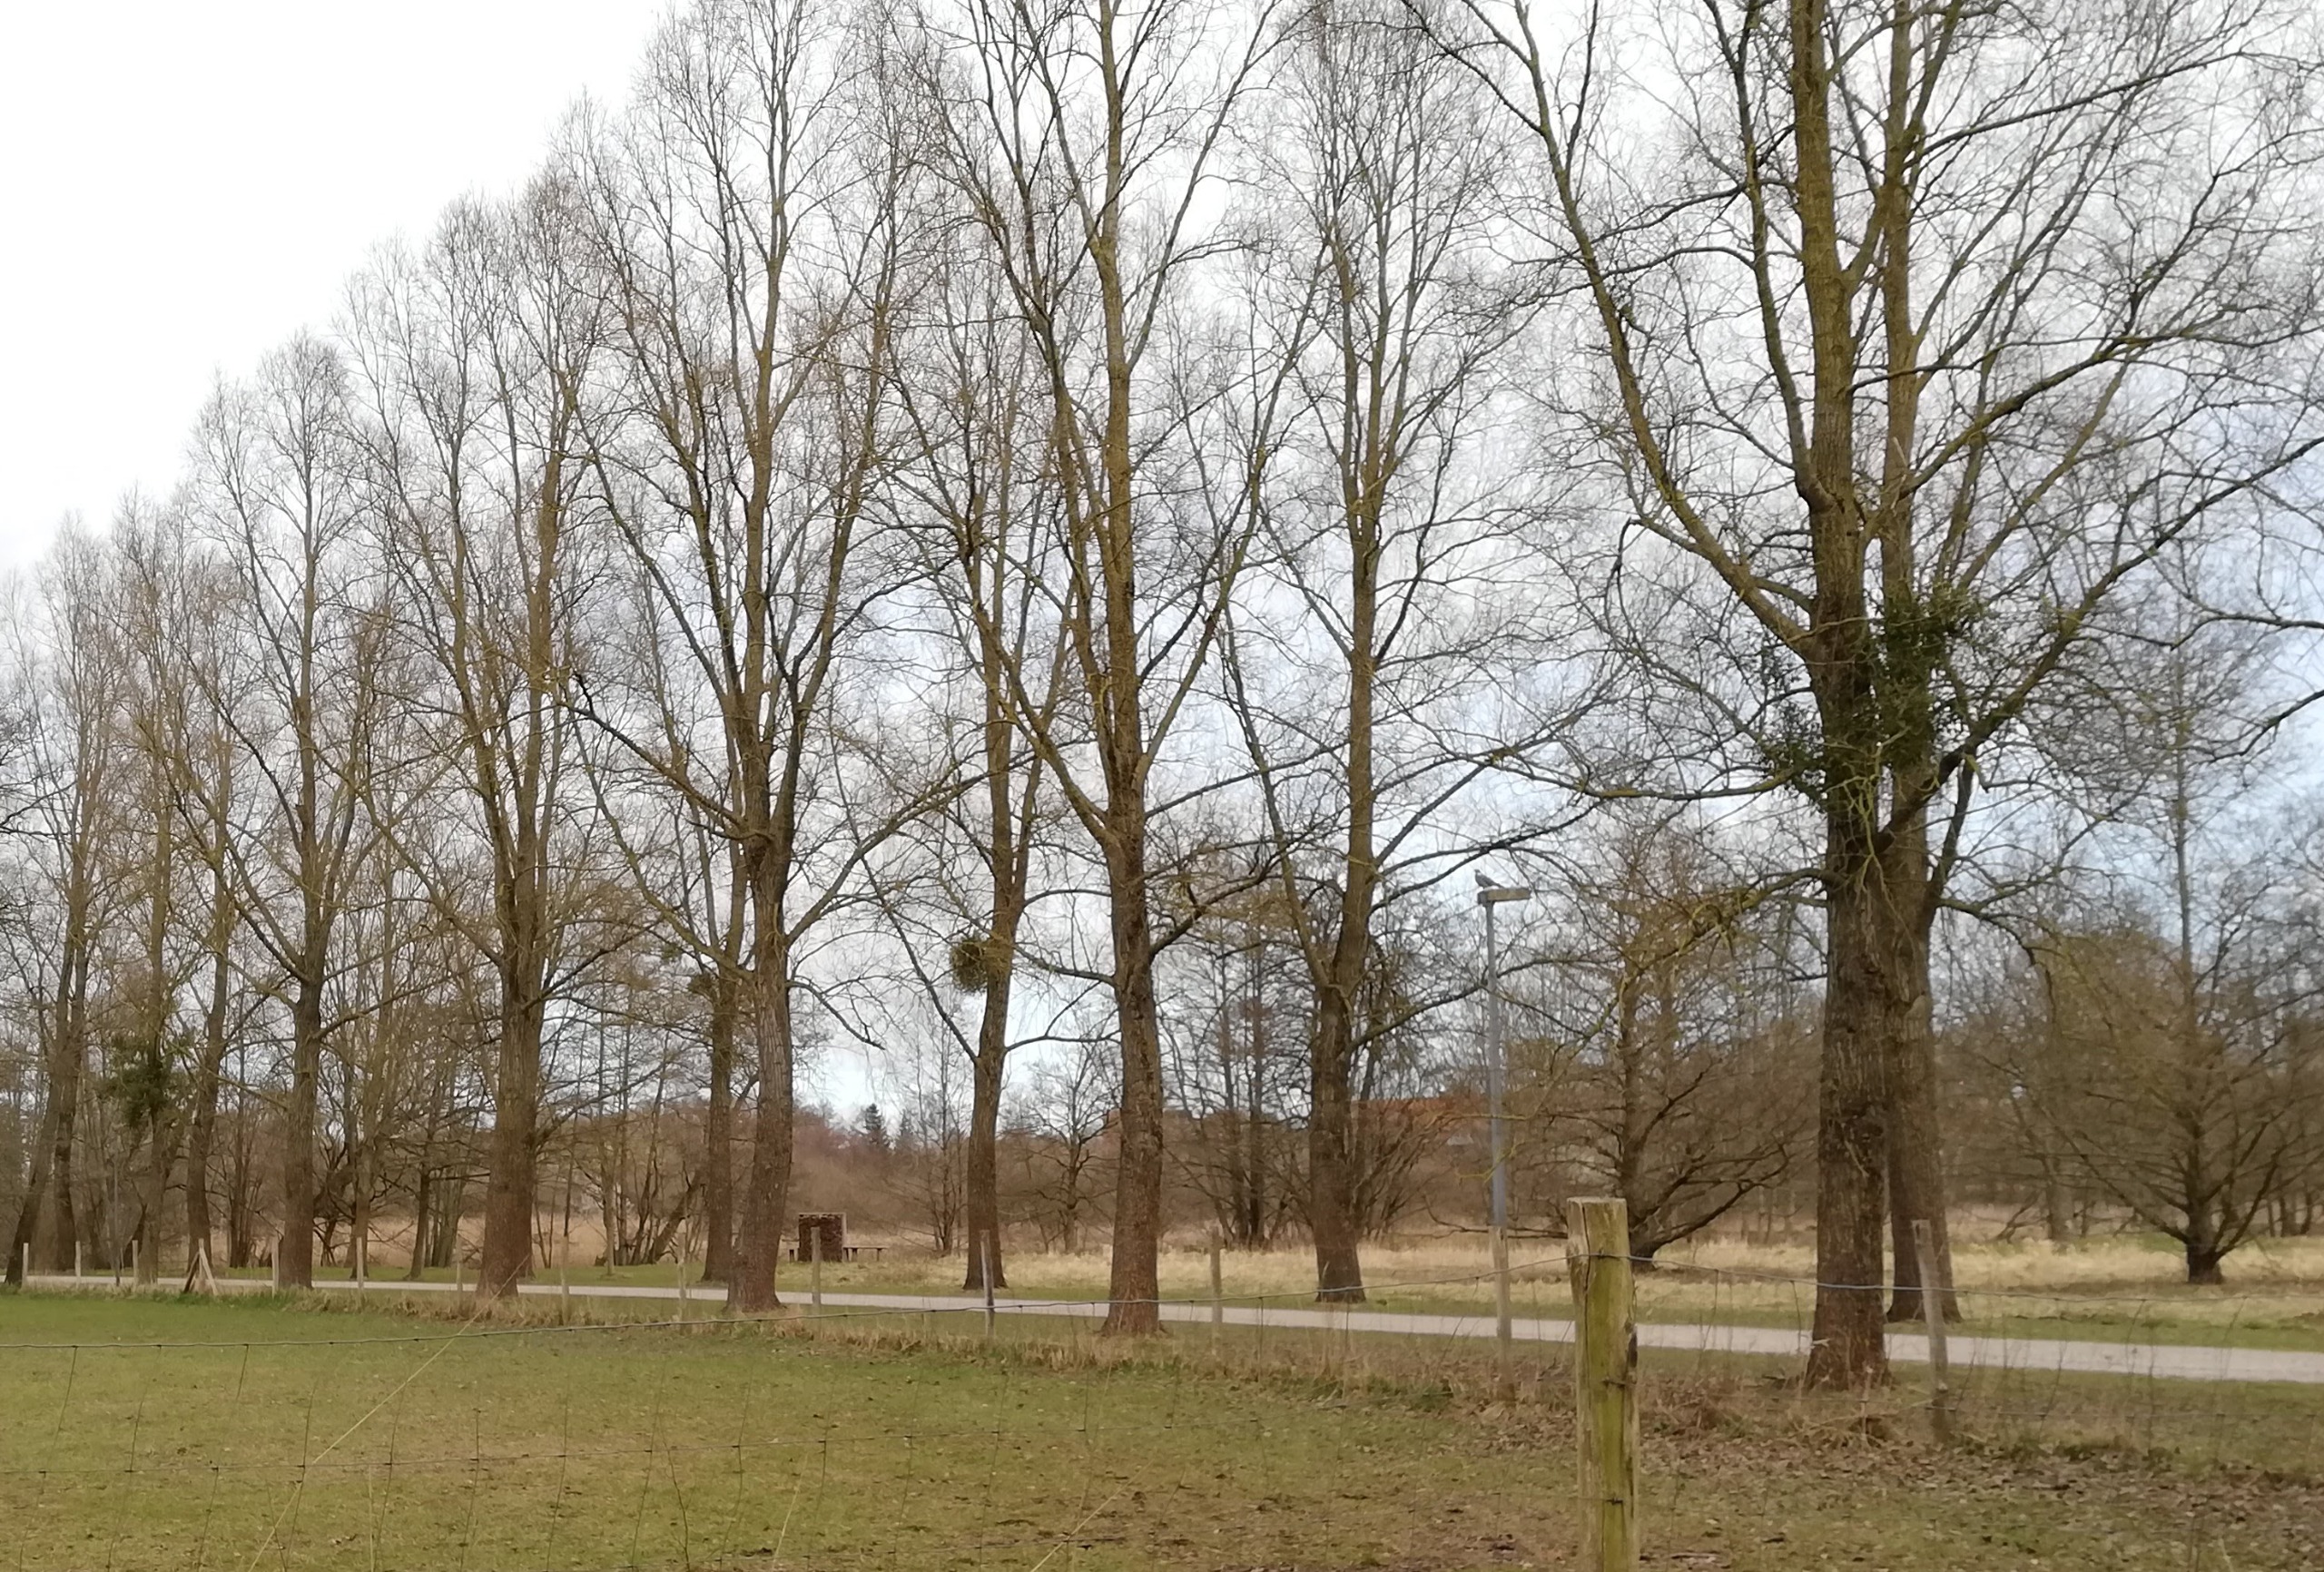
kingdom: Plantae
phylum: Tracheophyta
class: Magnoliopsida
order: Santalales
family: Viscaceae
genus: Viscum
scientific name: Viscum album
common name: Mistelten
